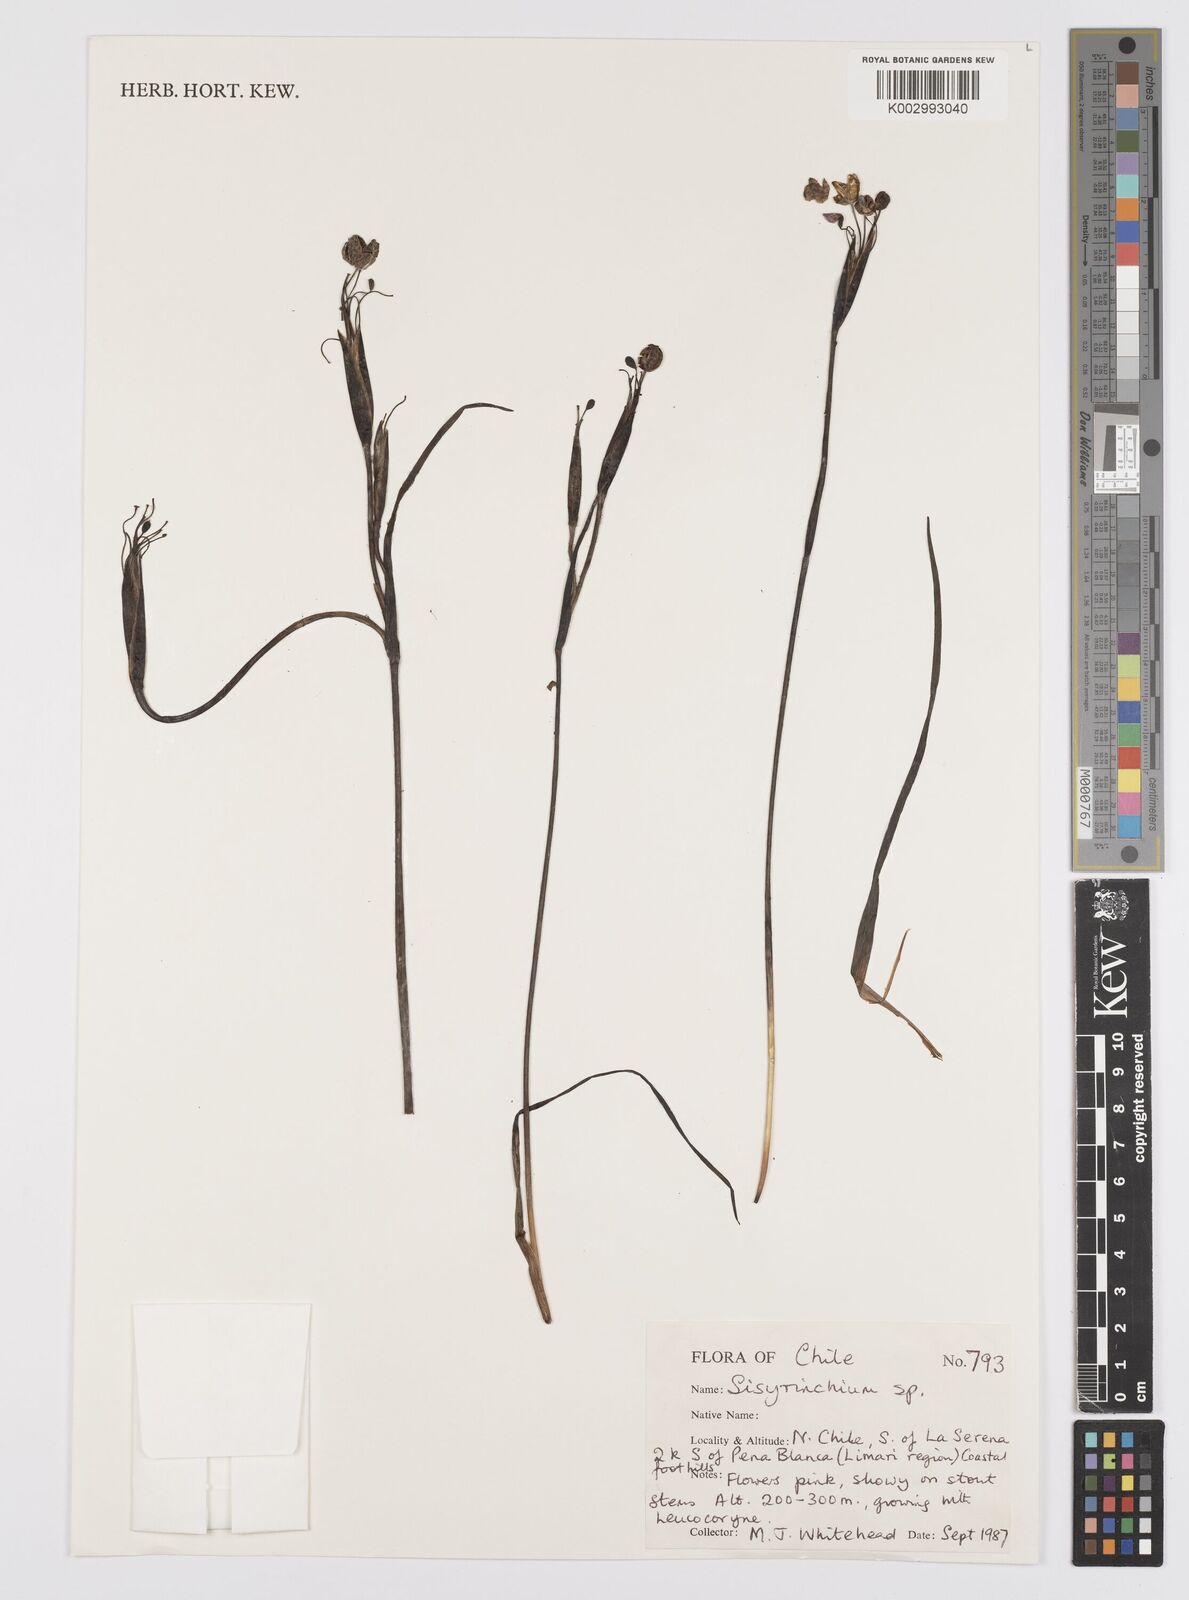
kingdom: Plantae
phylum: Tracheophyta
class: Liliopsida
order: Asparagales
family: Iridaceae
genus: Sisyrinchium
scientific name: Sisyrinchium
